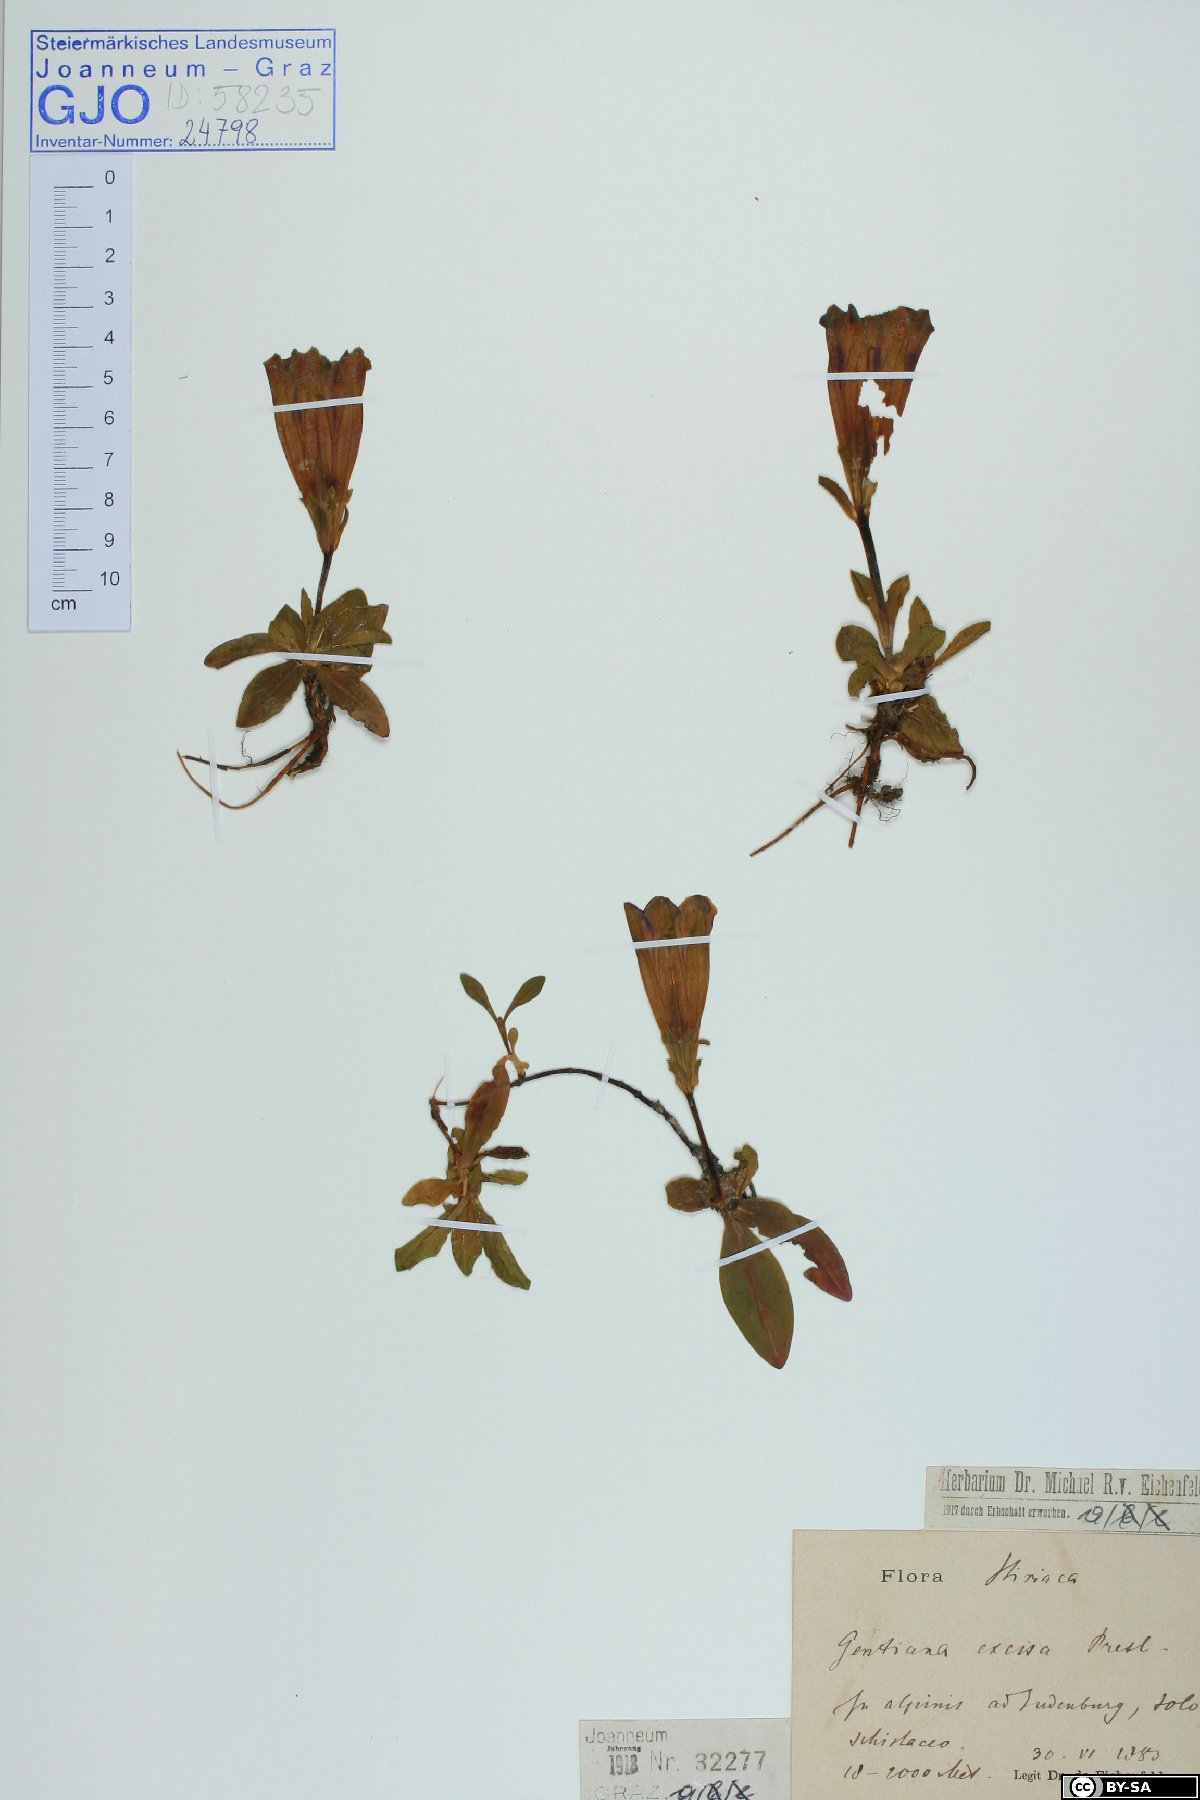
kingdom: Plantae
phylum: Tracheophyta
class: Magnoliopsida
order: Gentianales
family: Gentianaceae
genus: Gentiana
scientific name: Gentiana acaulis
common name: Trumpet gentian
